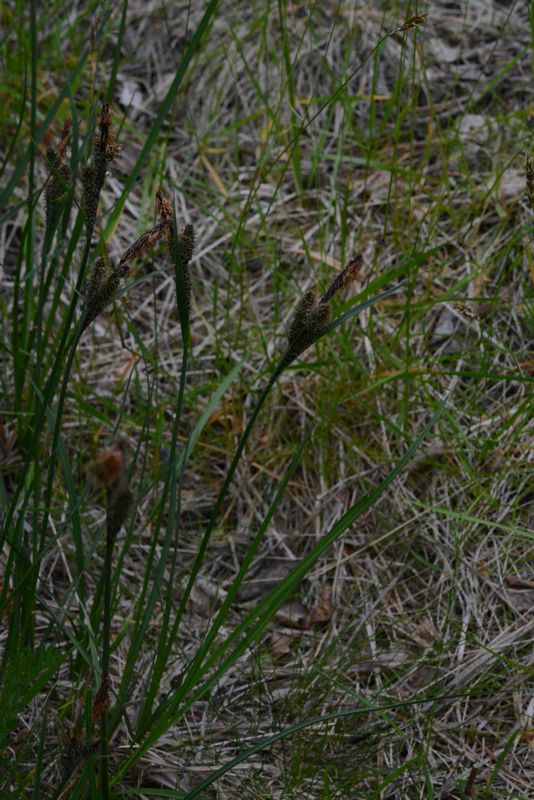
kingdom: Plantae
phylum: Tracheophyta
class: Liliopsida
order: Poales
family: Cyperaceae
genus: Carex
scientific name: Carex nigra
